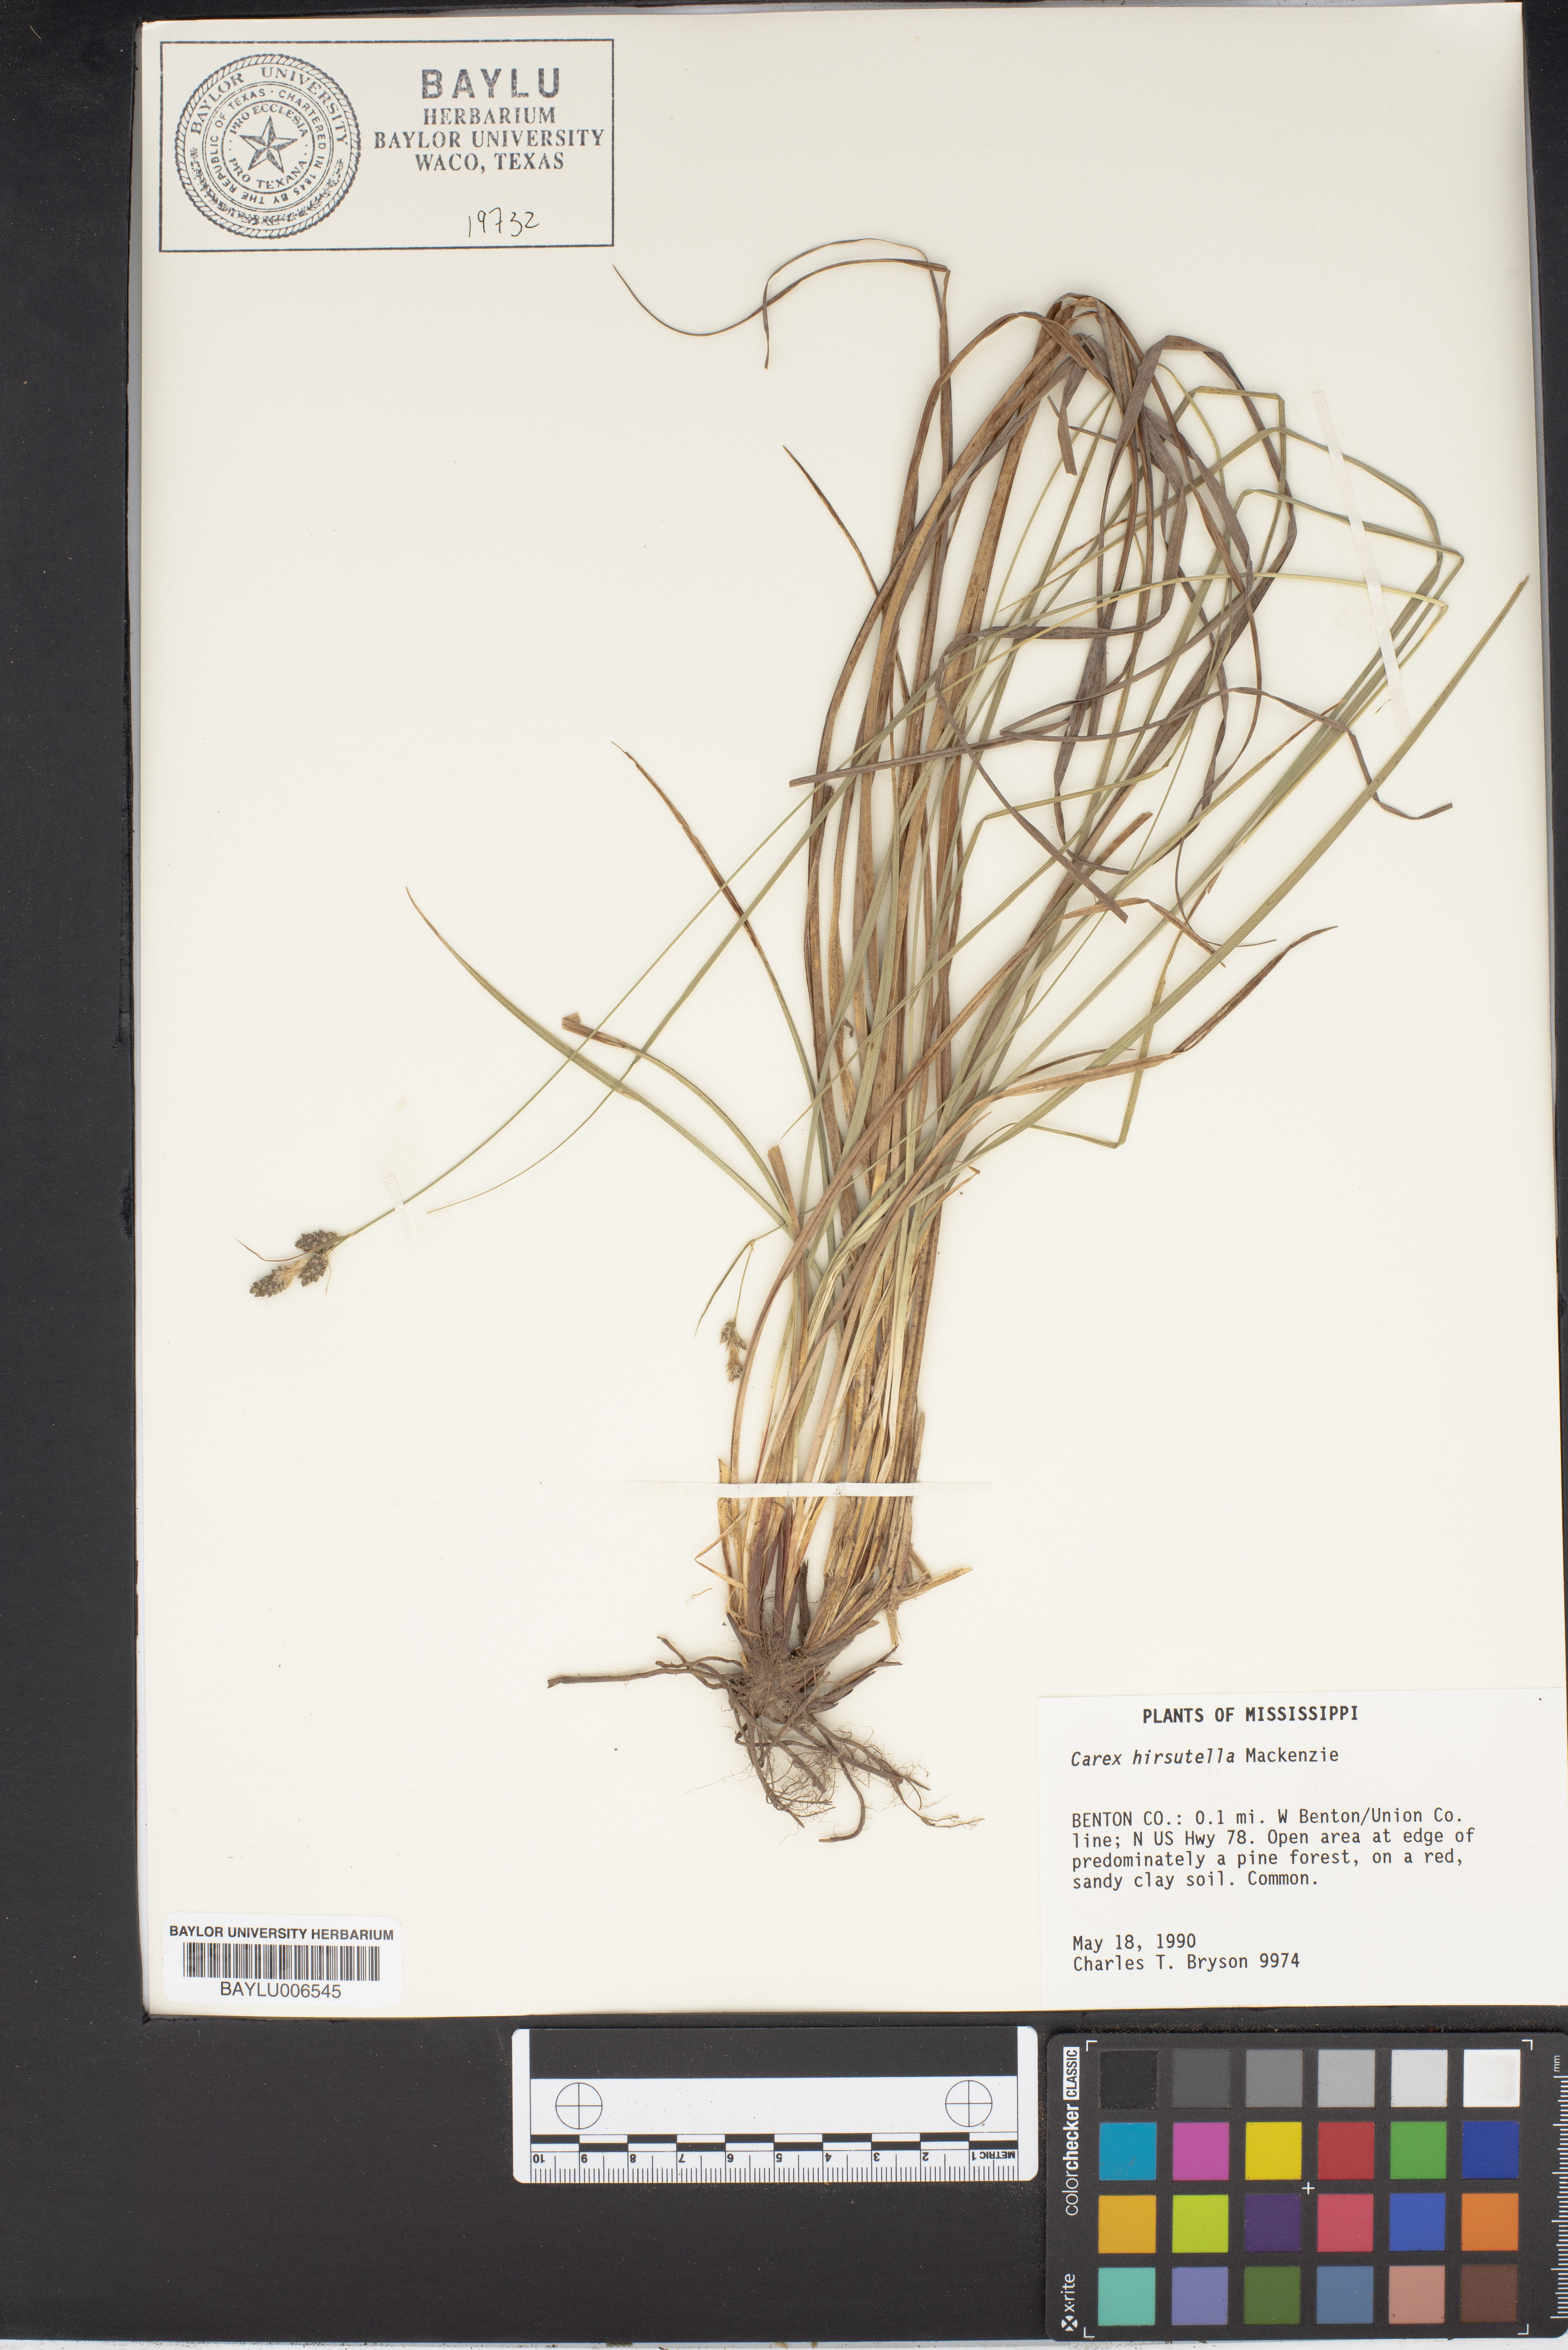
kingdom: Plantae
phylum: Tracheophyta
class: Liliopsida
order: Poales
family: Cyperaceae
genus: Carex
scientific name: Carex hirsutella
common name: Fuzzy wuzzy sedge
